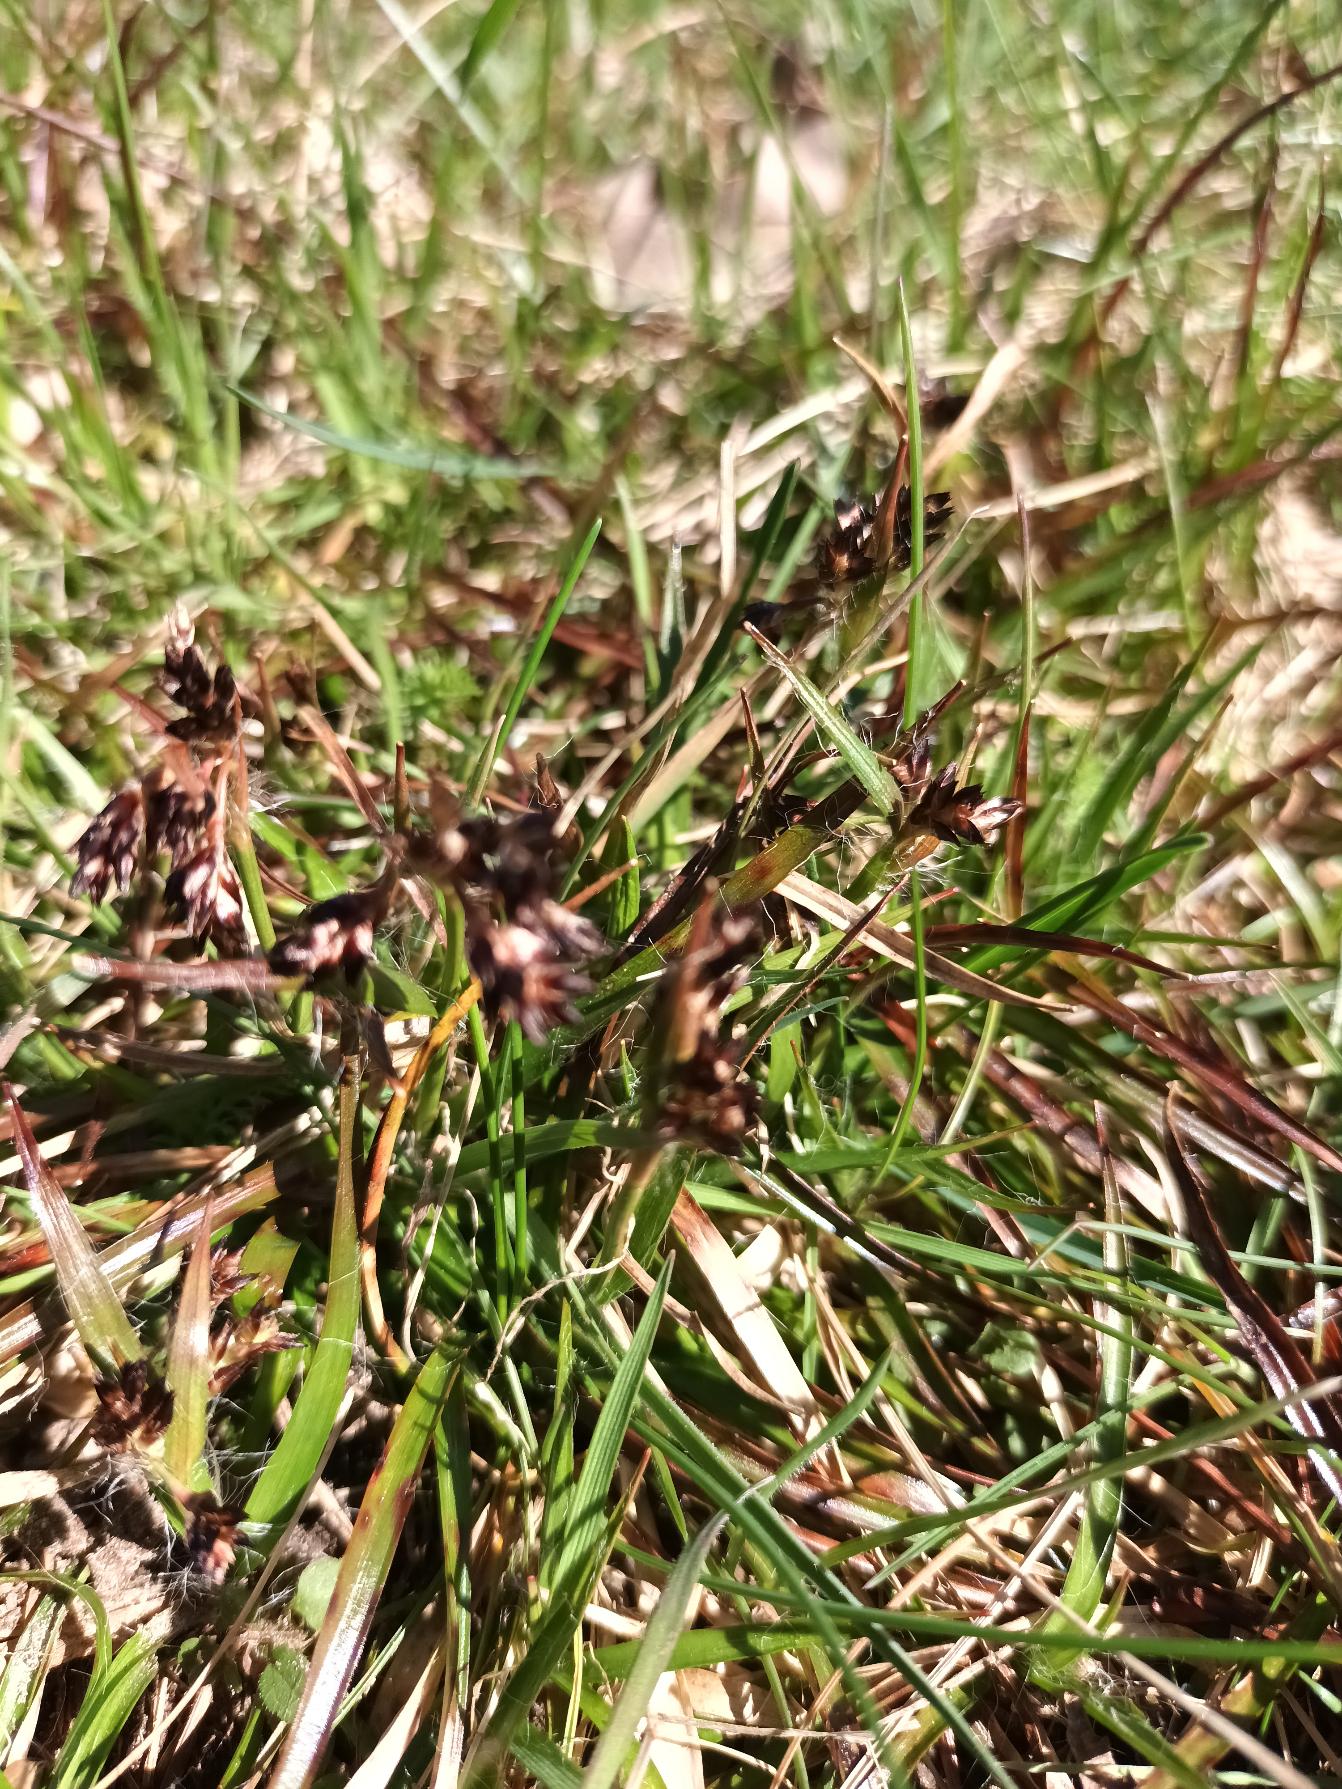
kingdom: Plantae
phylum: Tracheophyta
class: Liliopsida
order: Poales
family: Juncaceae
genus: Luzula
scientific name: Luzula campestris
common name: Mark-frytle
